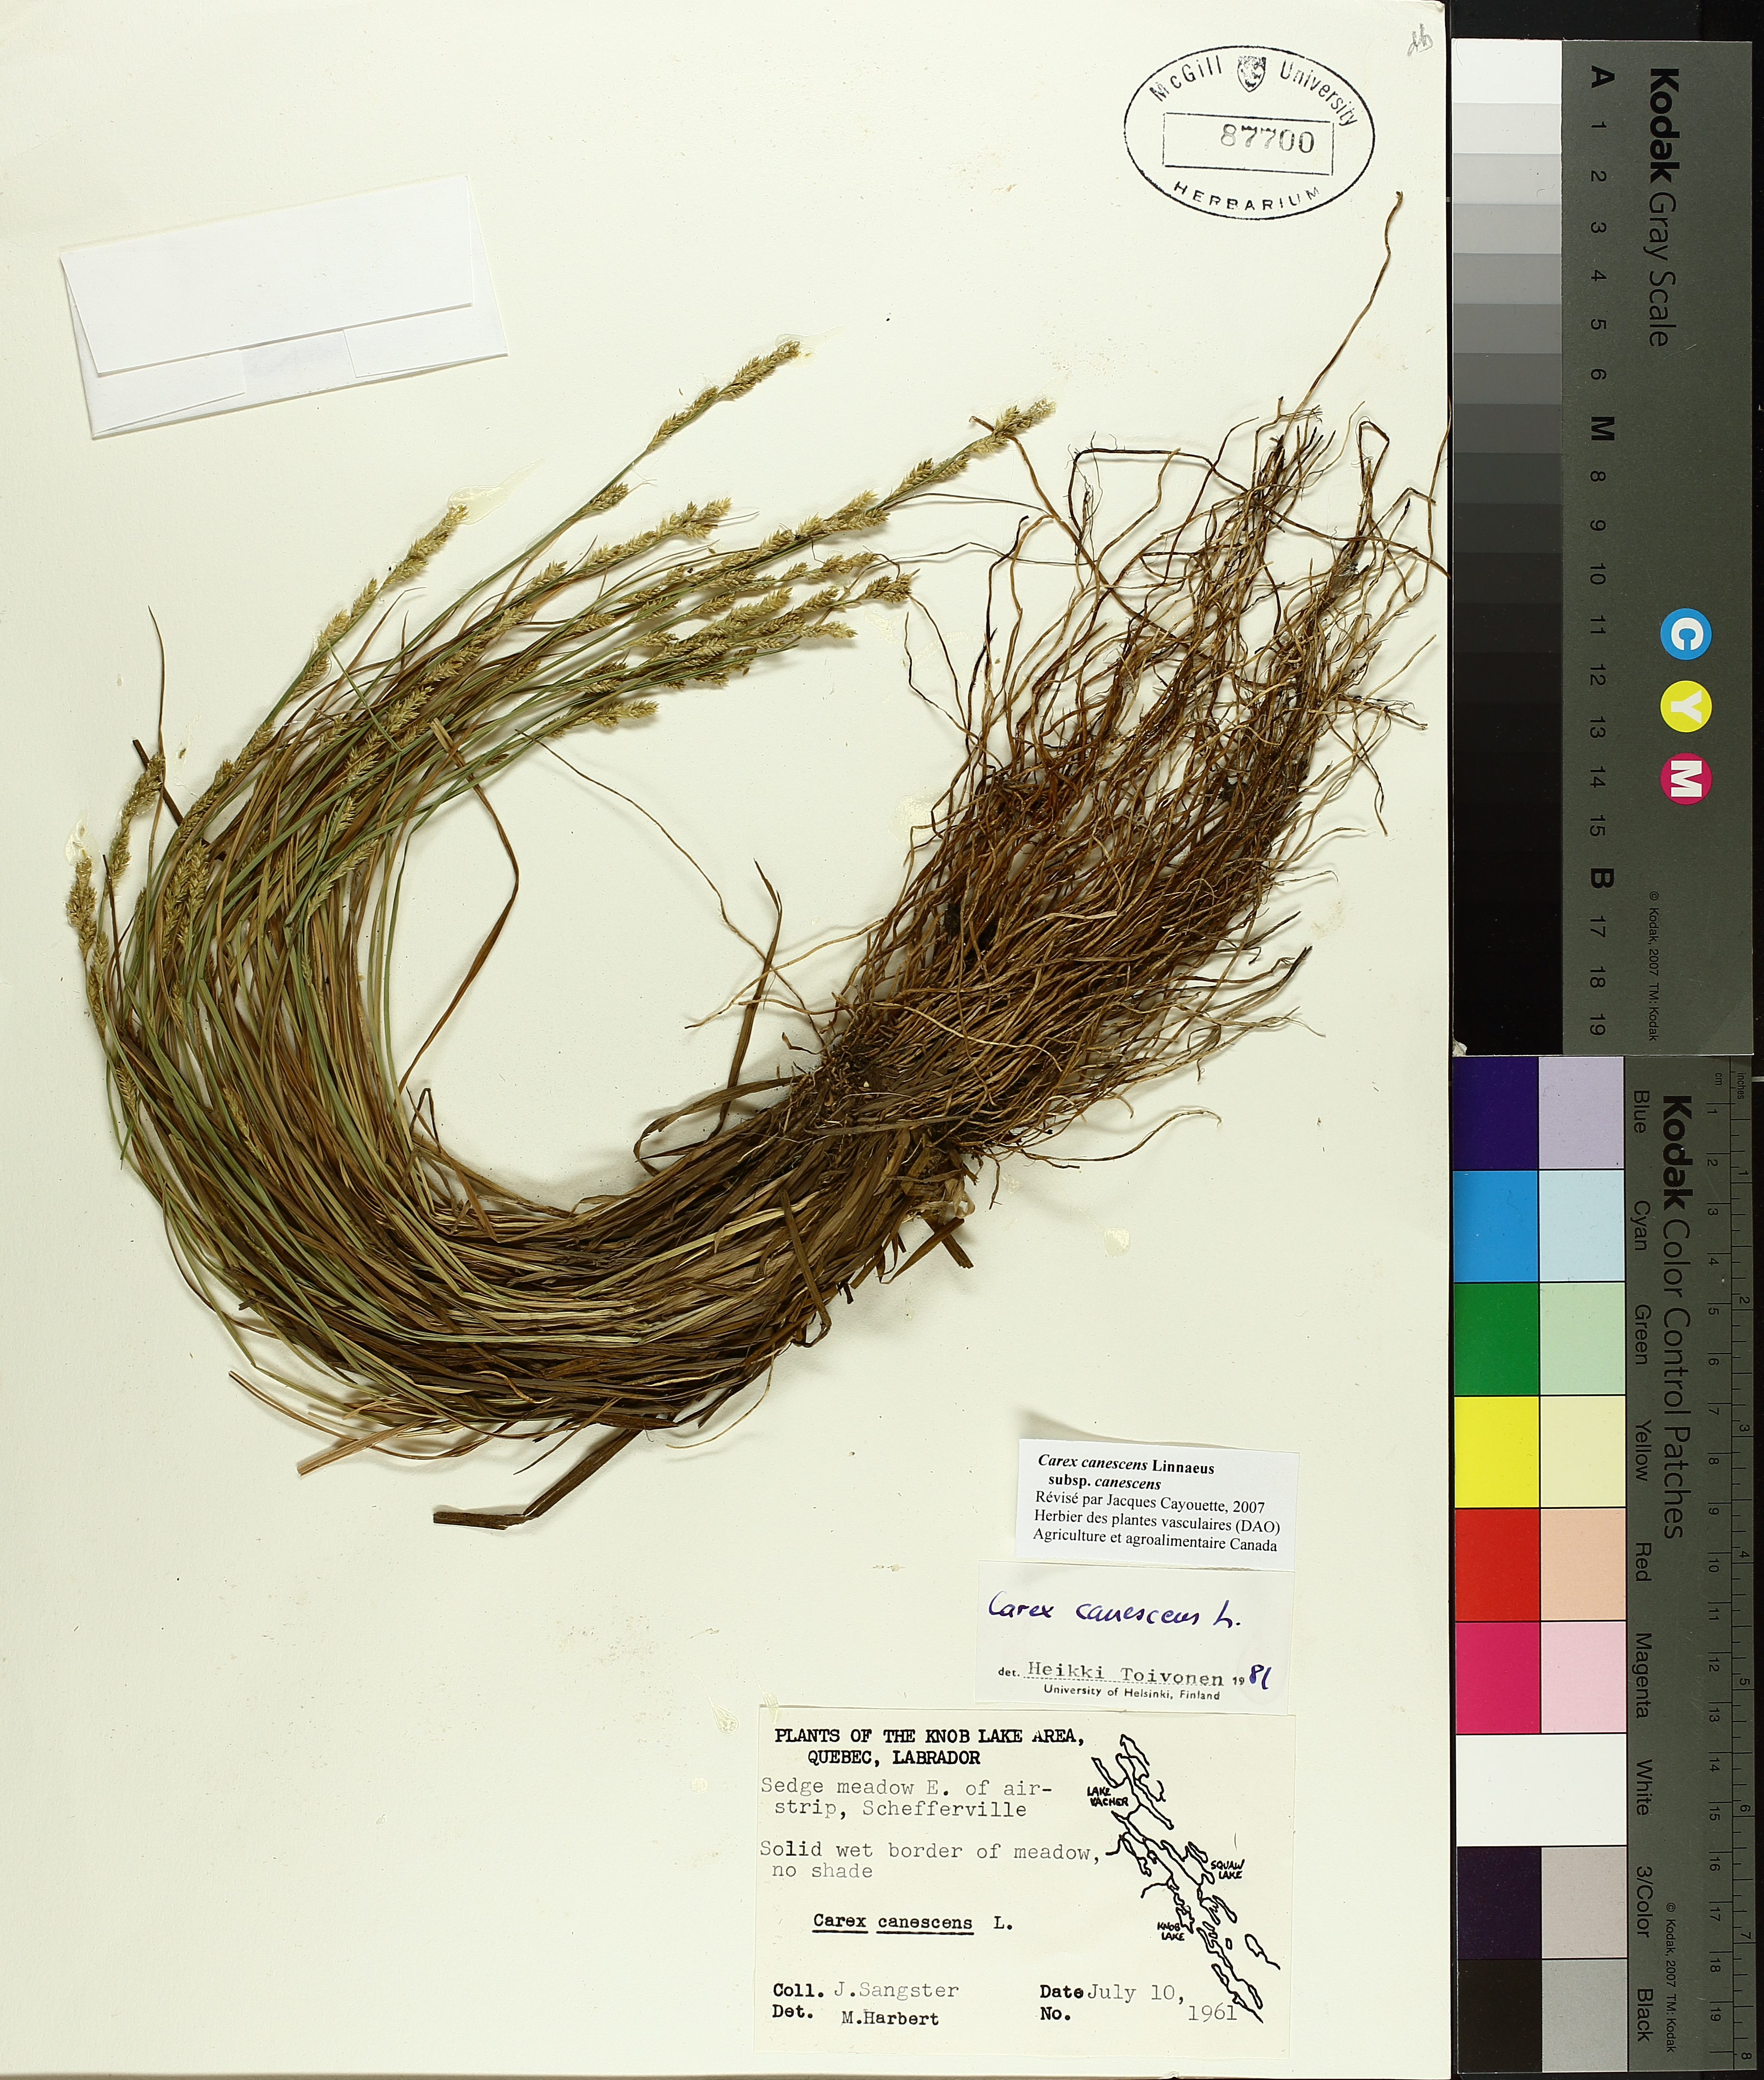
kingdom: Plantae
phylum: Tracheophyta
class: Liliopsida
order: Poales
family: Cyperaceae
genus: Carex
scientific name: Carex canescens
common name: White sedge
